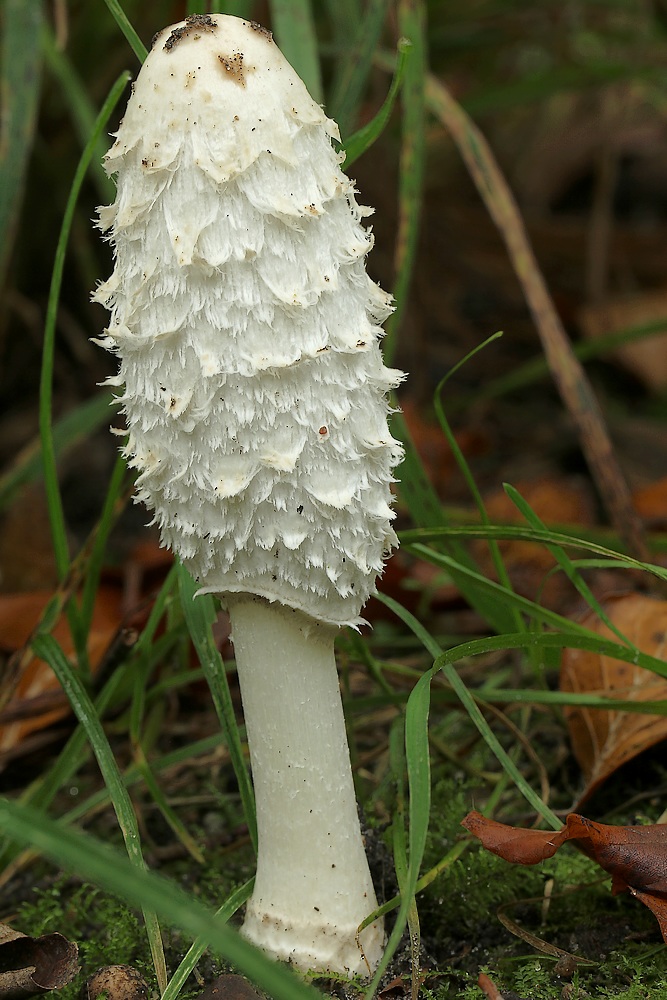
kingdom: Fungi
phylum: Basidiomycota
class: Agaricomycetes
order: Agaricales
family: Agaricaceae
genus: Coprinus
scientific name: Coprinus comatus
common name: stor parykhat
